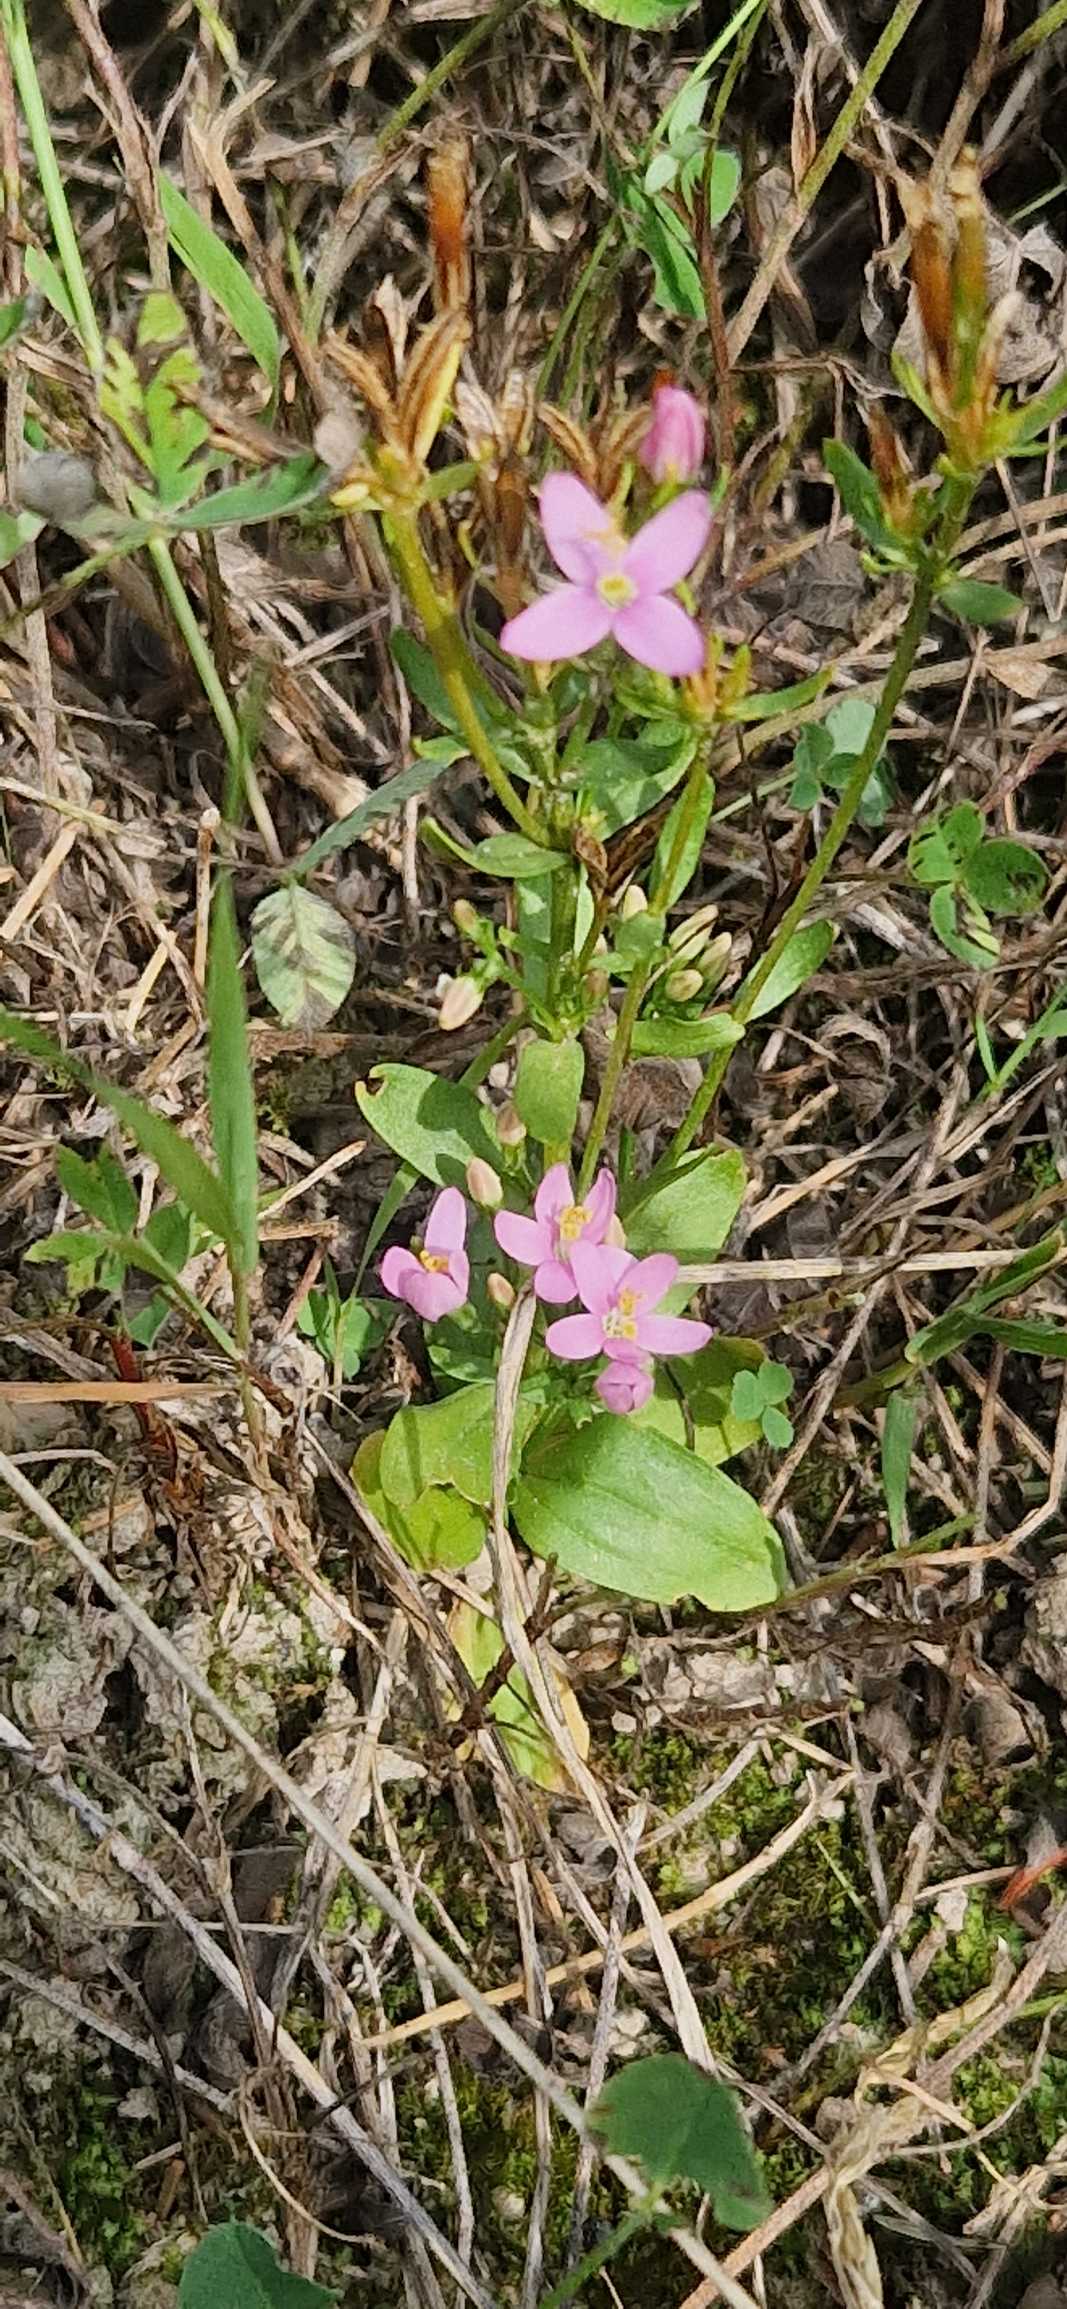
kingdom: Plantae
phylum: Tracheophyta
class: Magnoliopsida
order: Gentianales
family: Gentianaceae
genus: Centaurium
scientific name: Centaurium erythraea
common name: Mark-tusindgylden
